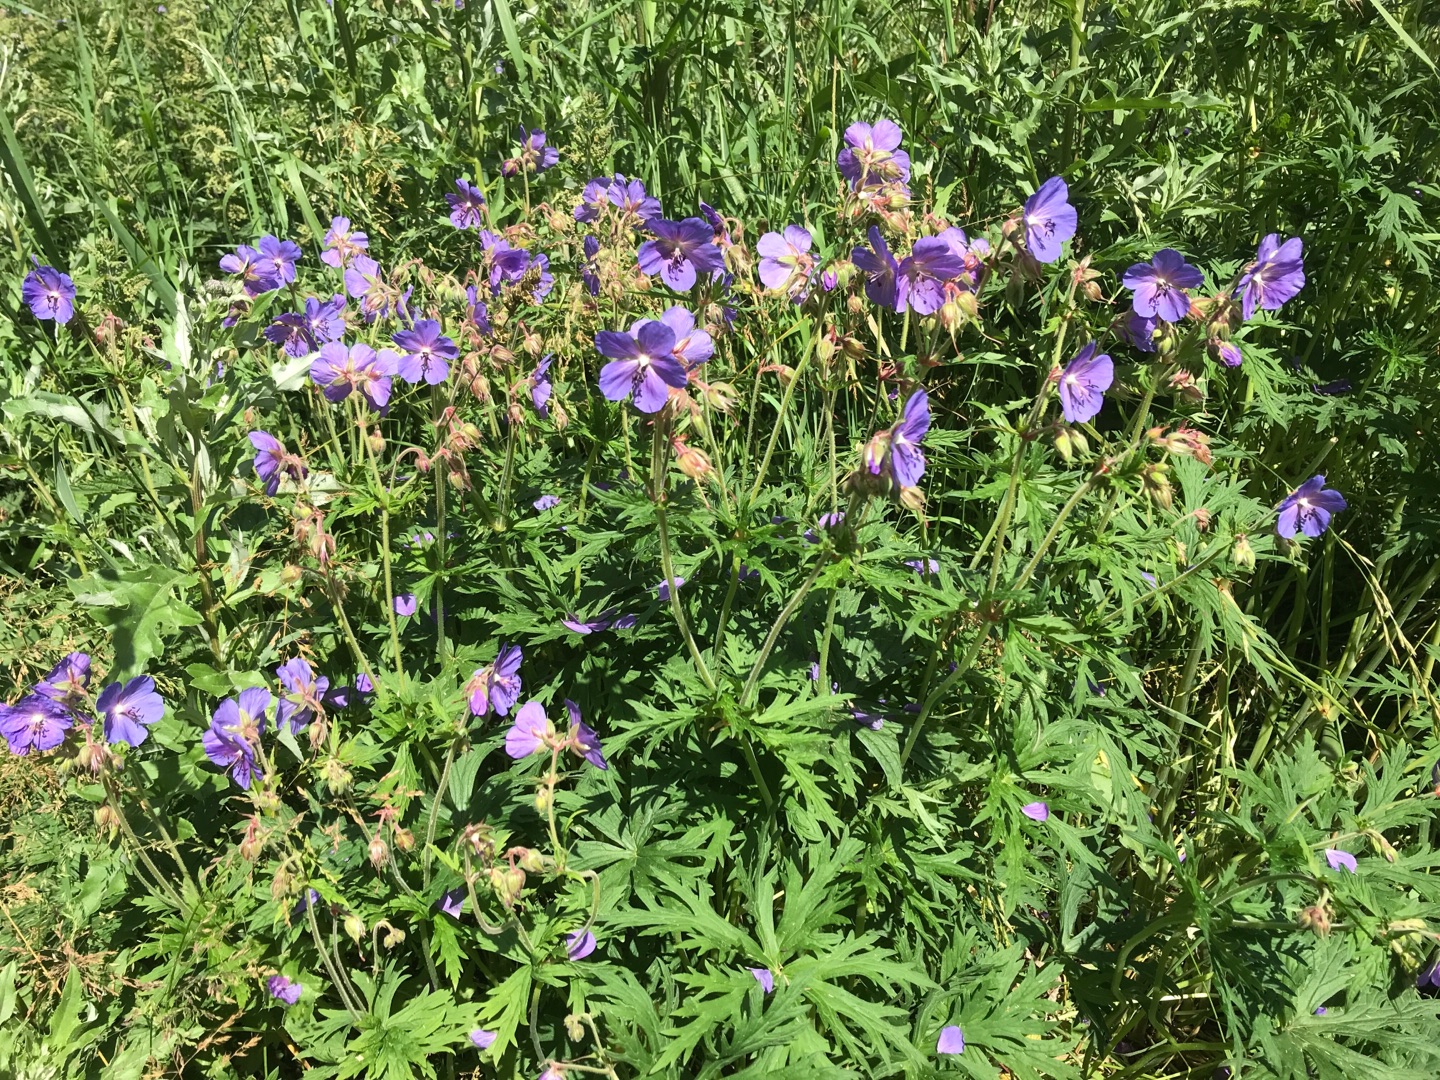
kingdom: Plantae
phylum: Tracheophyta
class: Magnoliopsida
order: Geraniales
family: Geraniaceae
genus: Geranium
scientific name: Geranium pratense
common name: Eng-storkenæb
